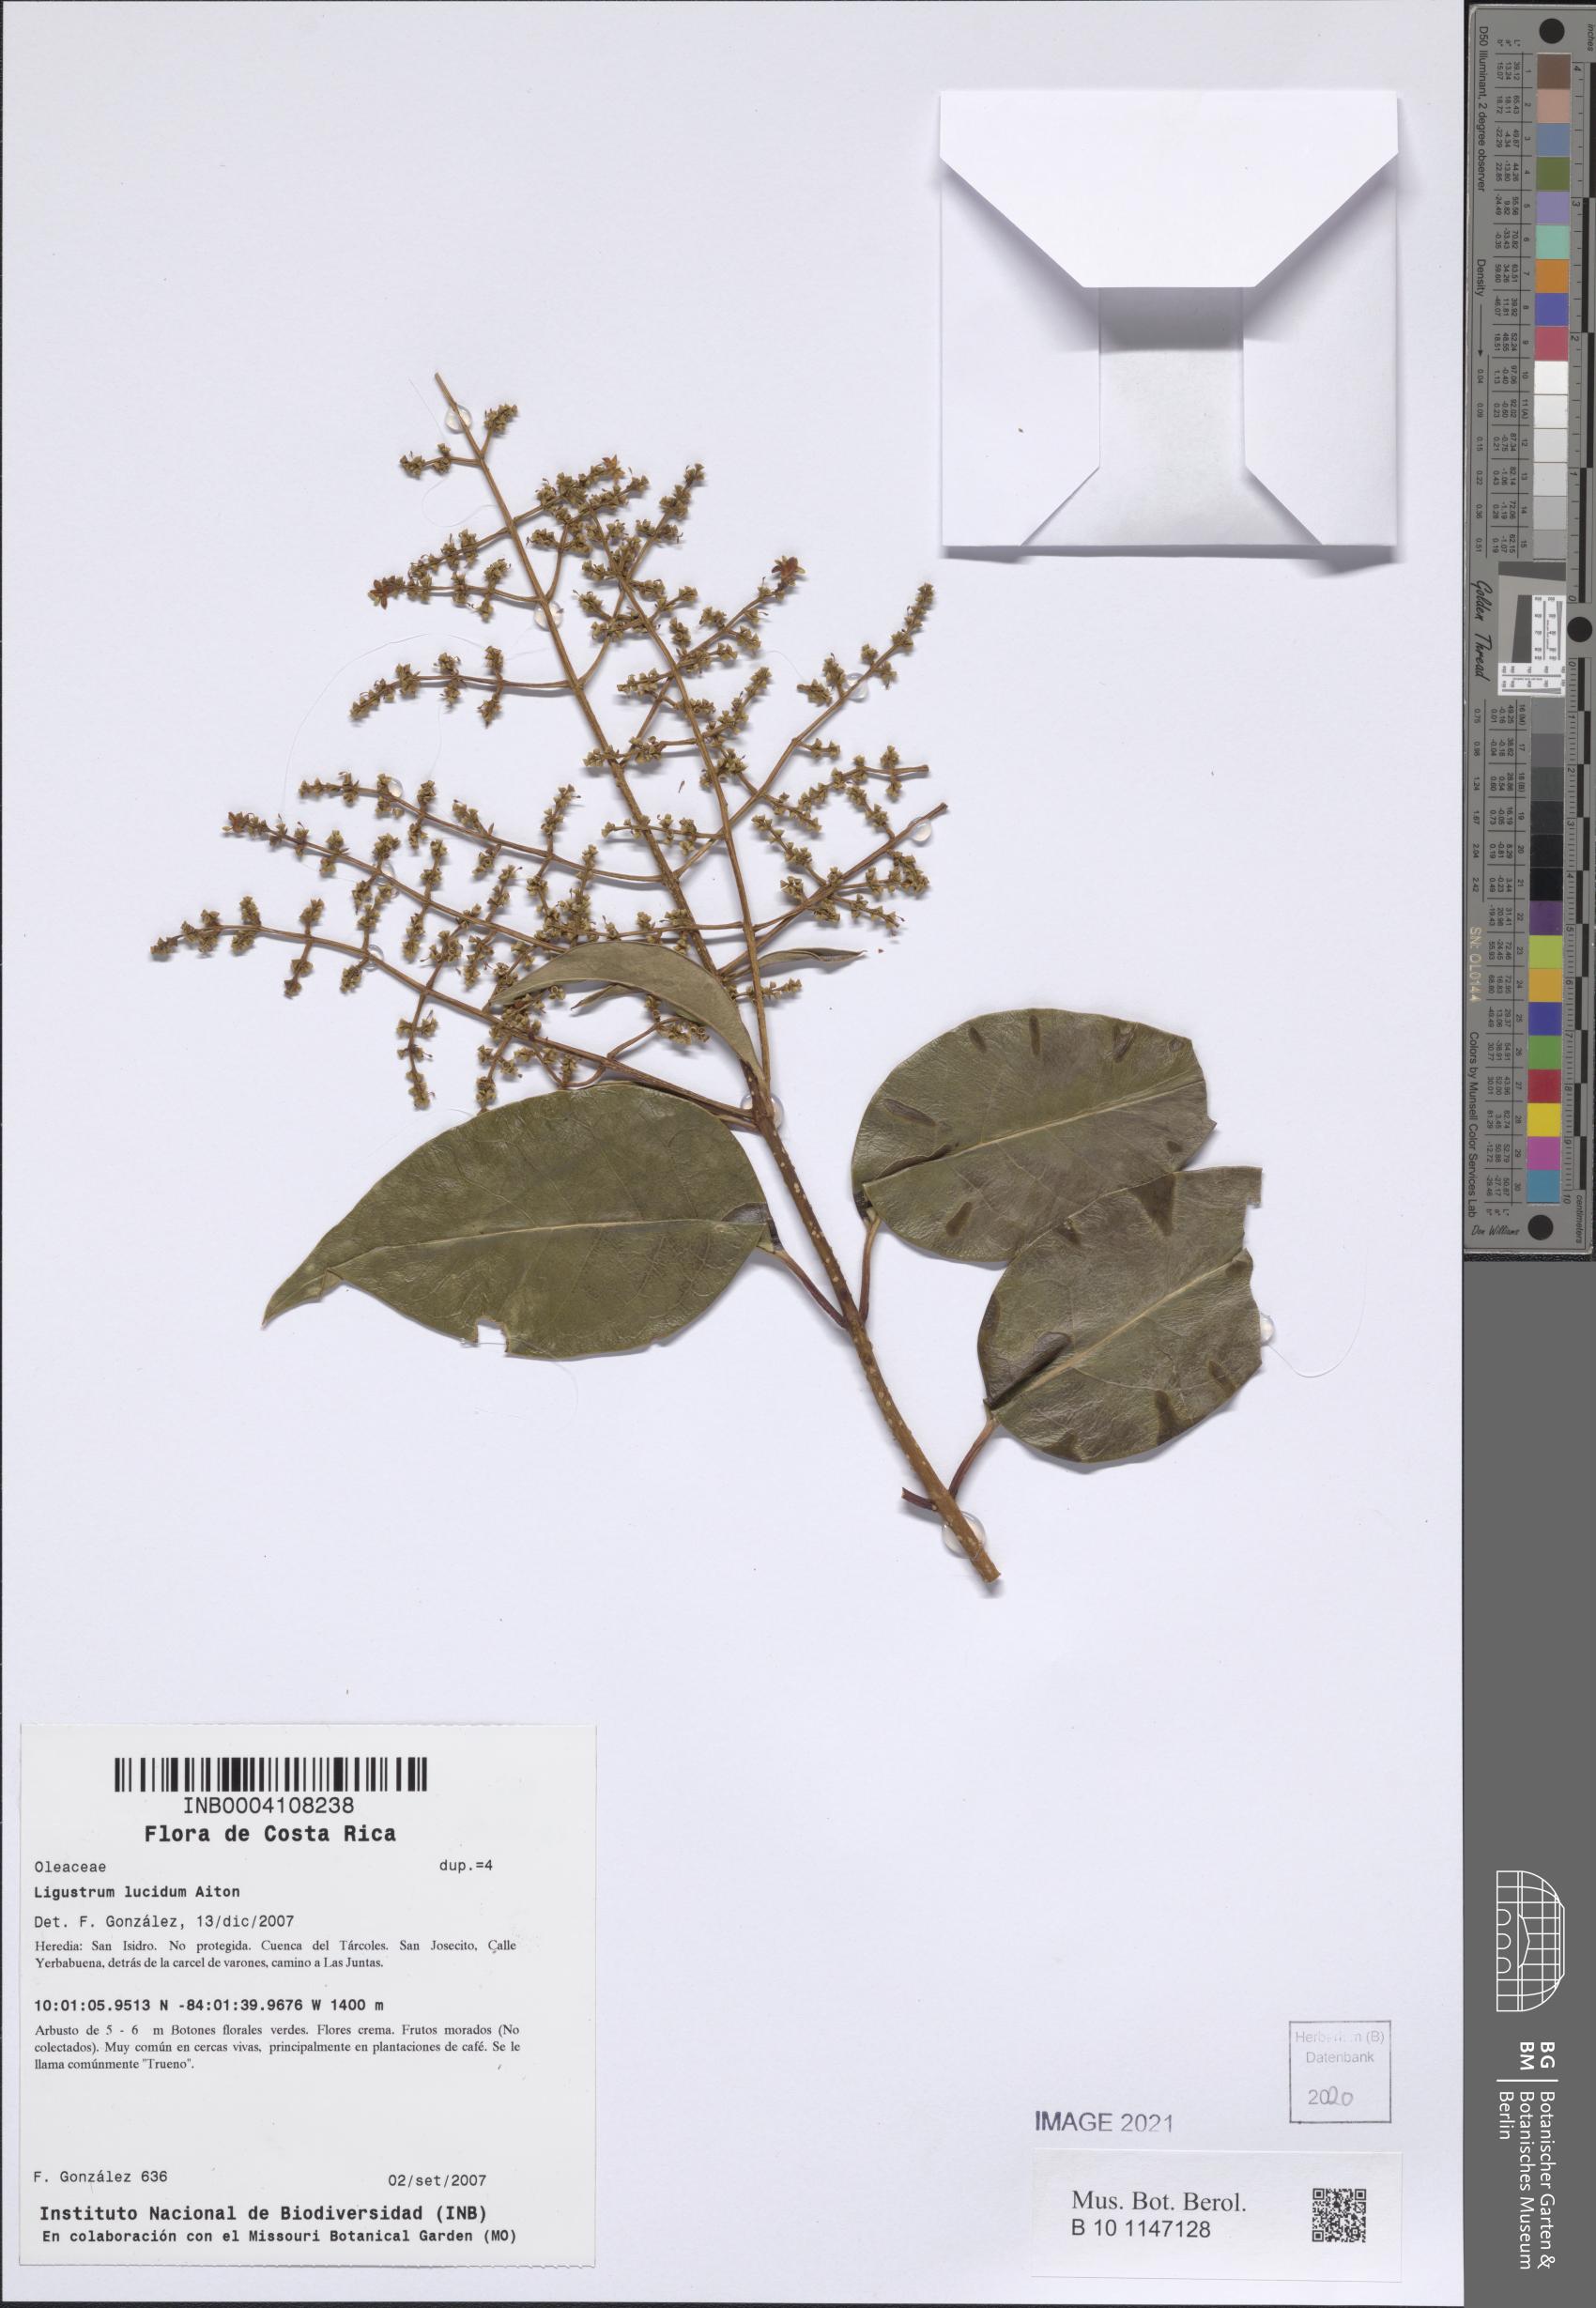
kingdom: Plantae
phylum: Tracheophyta
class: Magnoliopsida
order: Lamiales
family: Oleaceae
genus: Ligustrum
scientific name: Ligustrum lucidum
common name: Glossy privet
